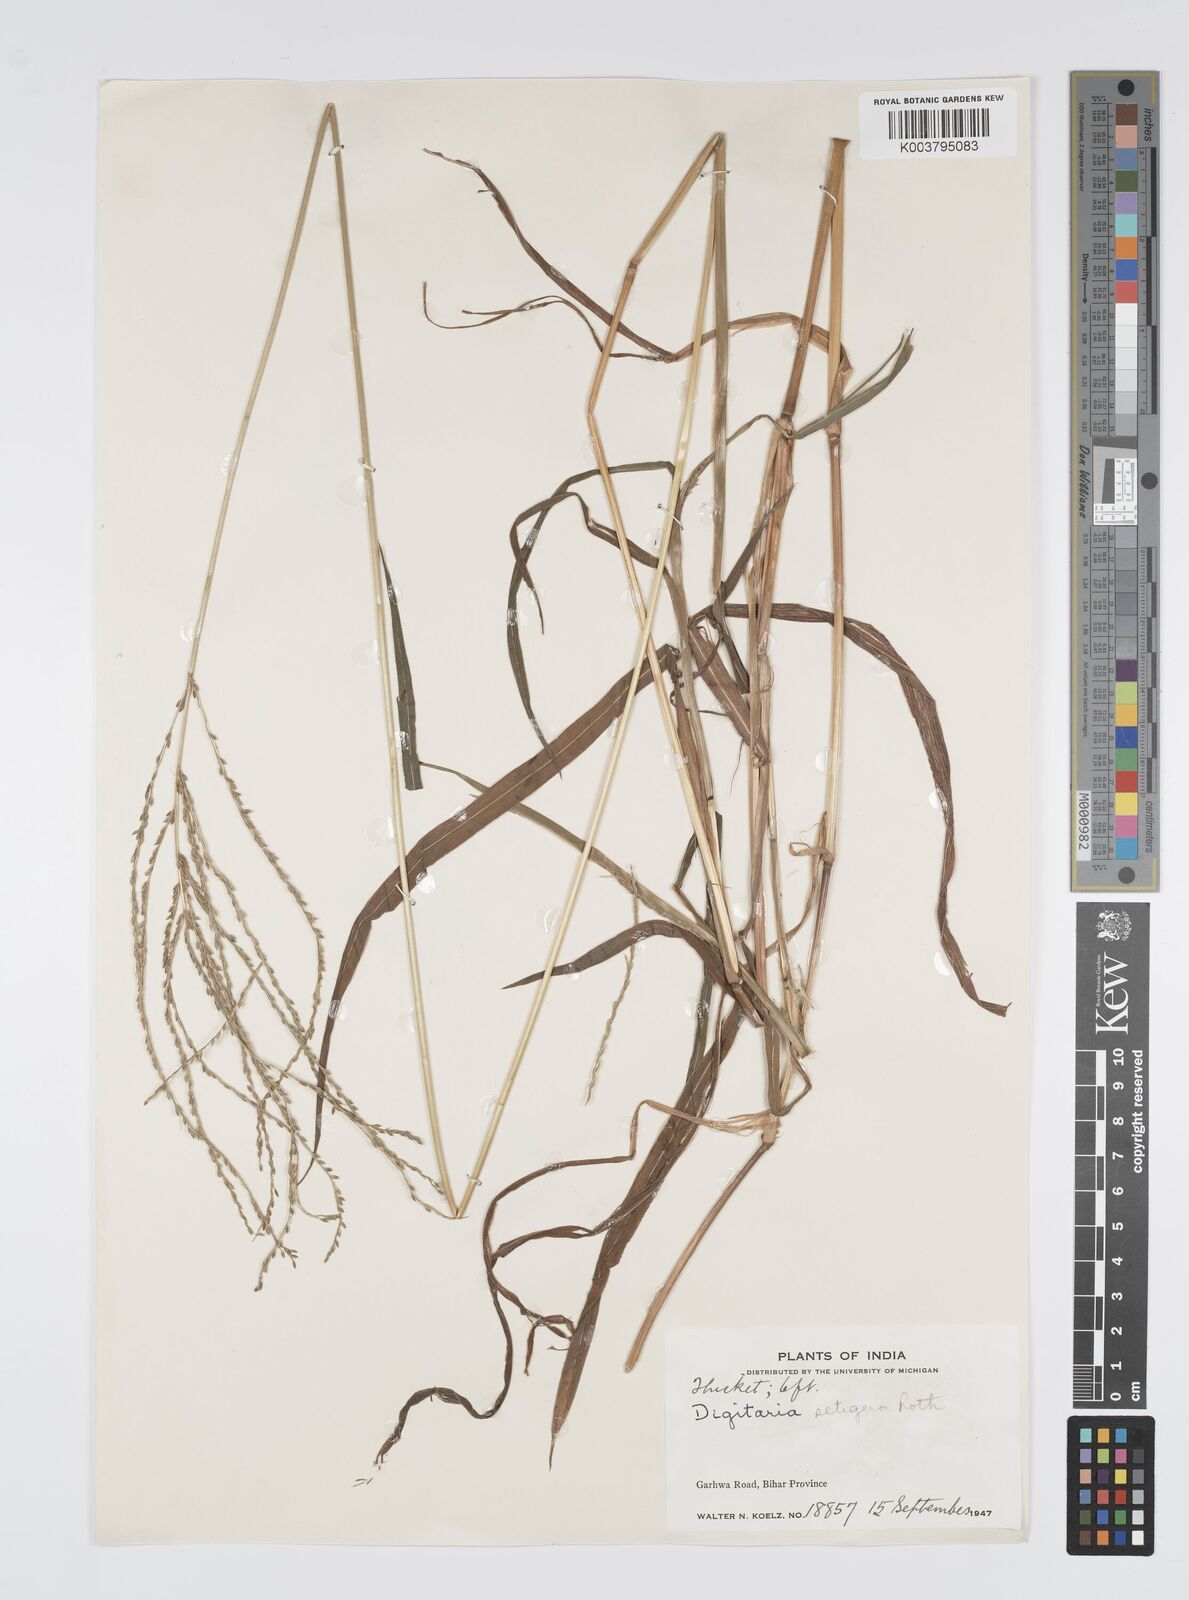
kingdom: Plantae
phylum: Tracheophyta
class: Liliopsida
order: Poales
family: Poaceae
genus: Digitaria
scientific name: Digitaria setigera
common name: East indian crabgrass
